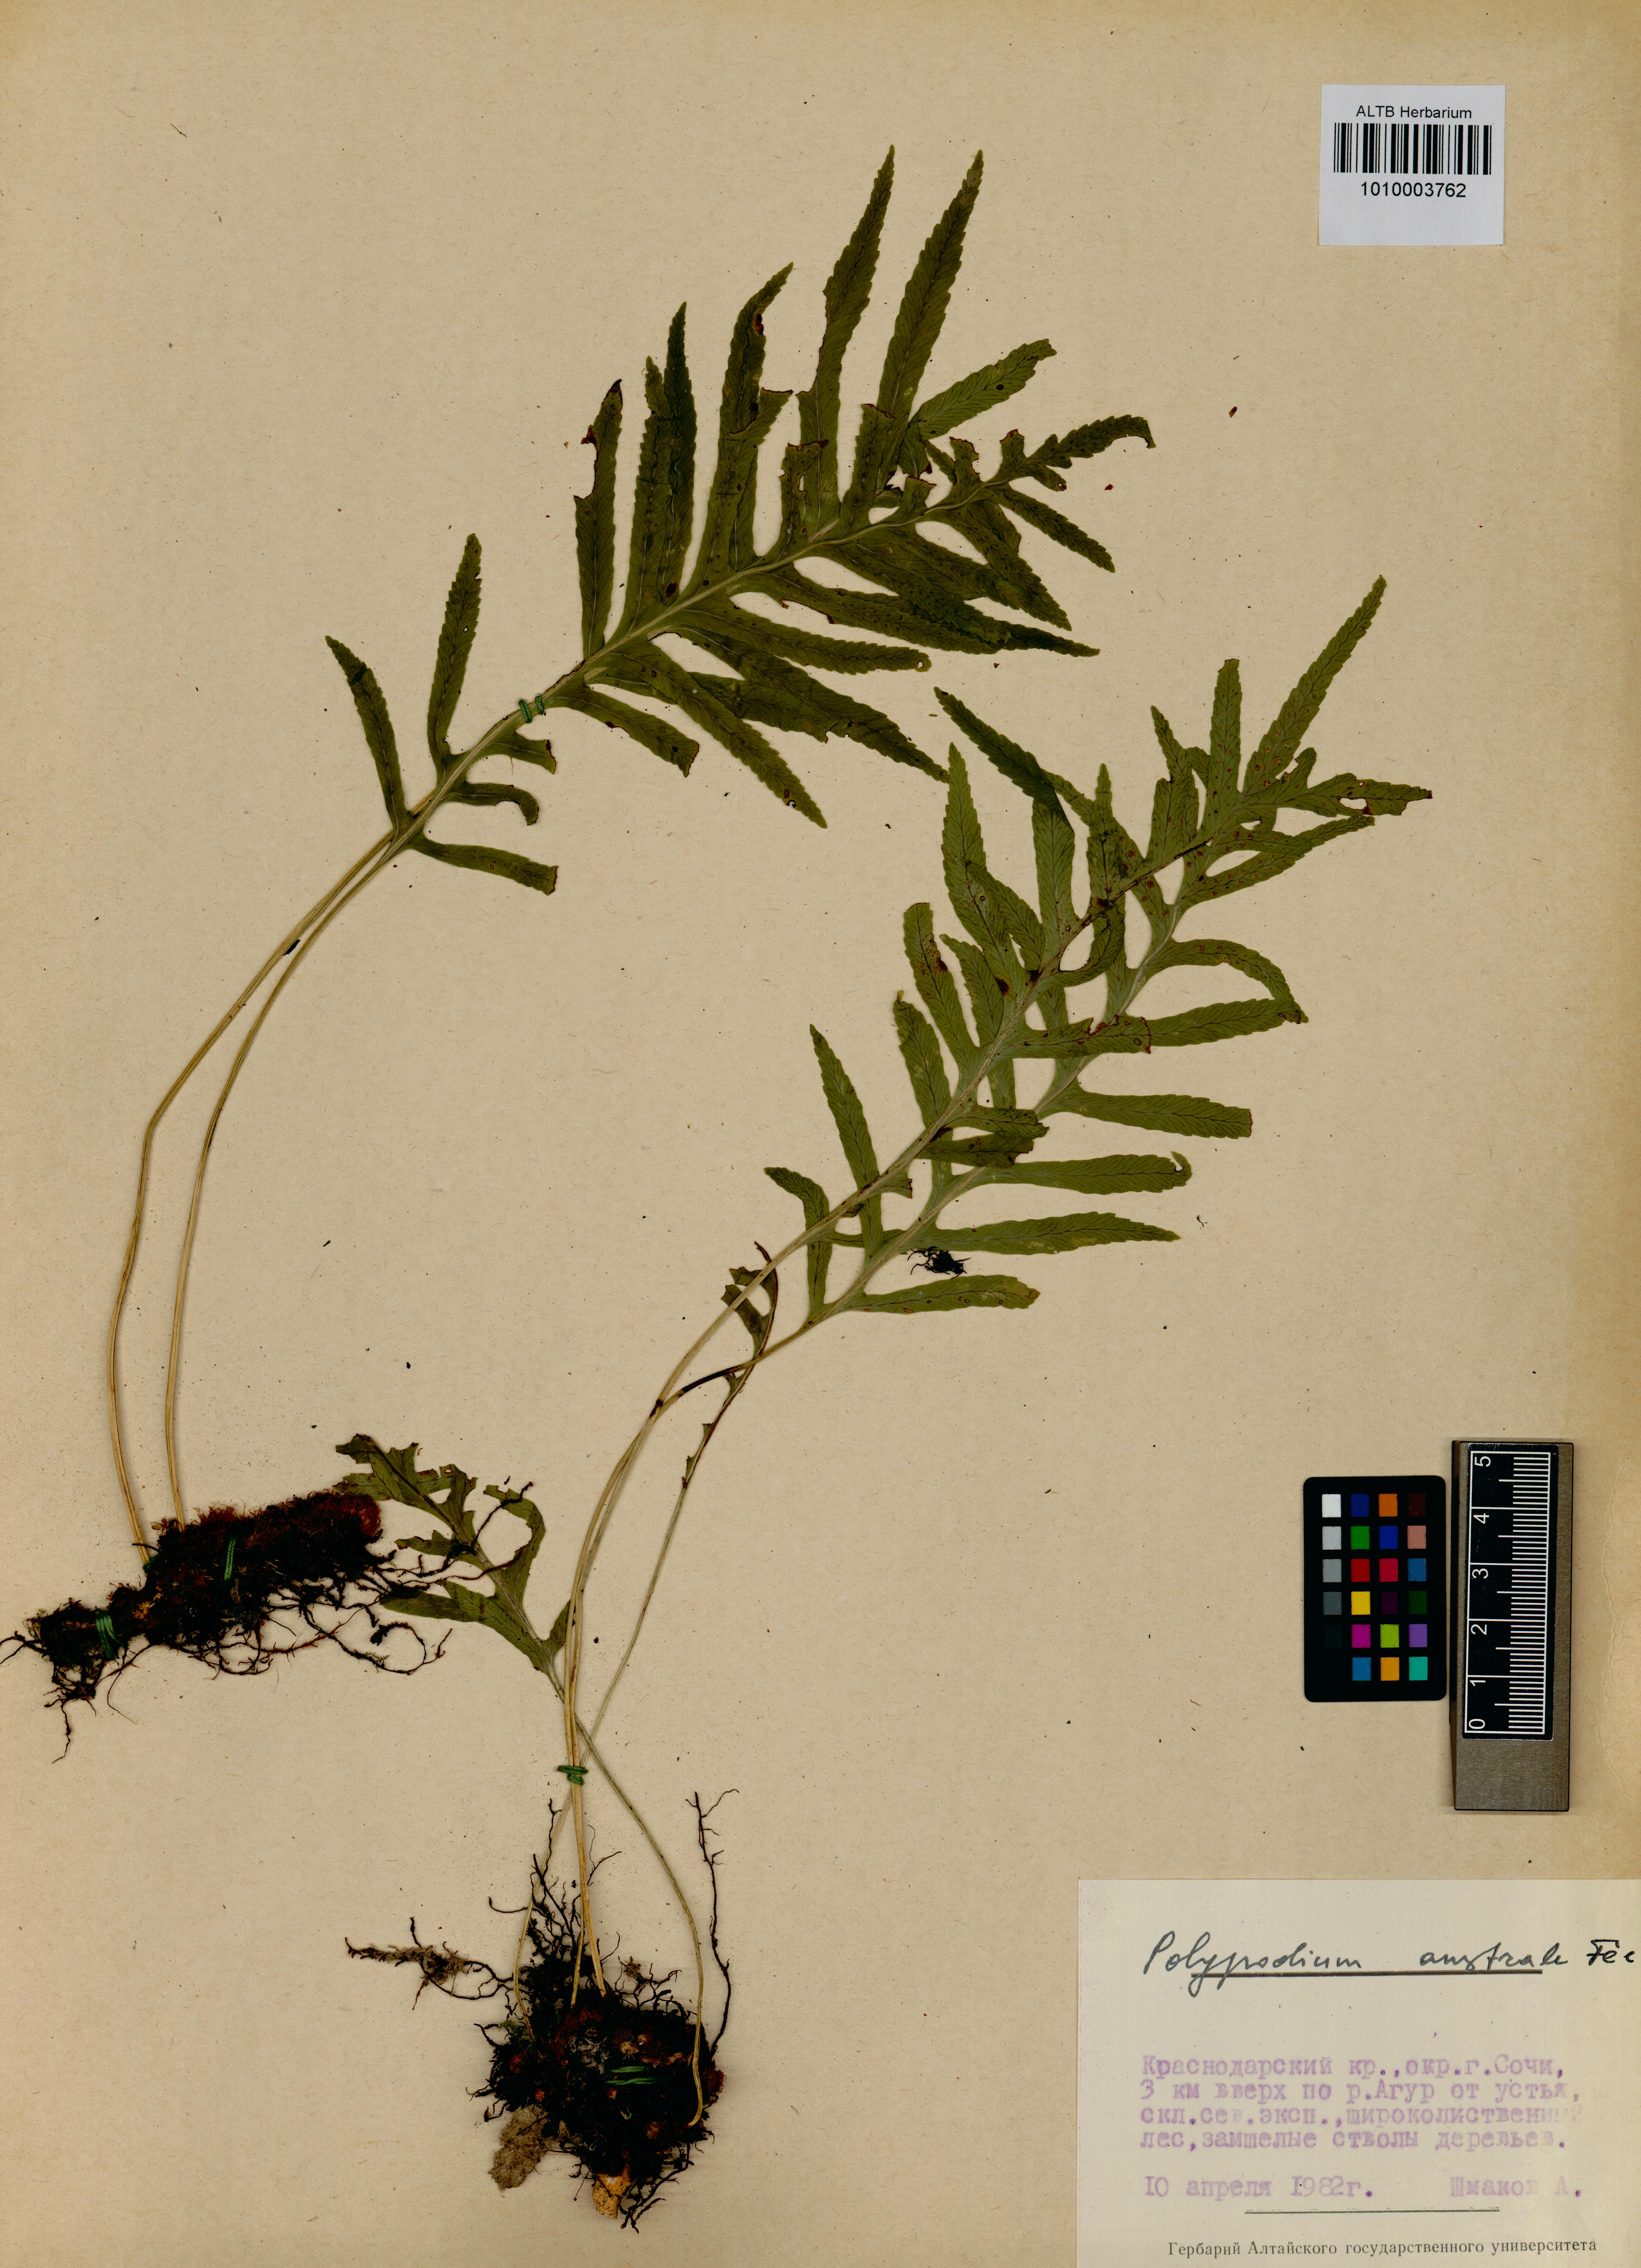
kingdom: Plantae
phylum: Tracheophyta
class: Polypodiopsida
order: Polypodiales
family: Polypodiaceae
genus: Polypodium
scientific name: Polypodium cambricum
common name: Southern polypody
